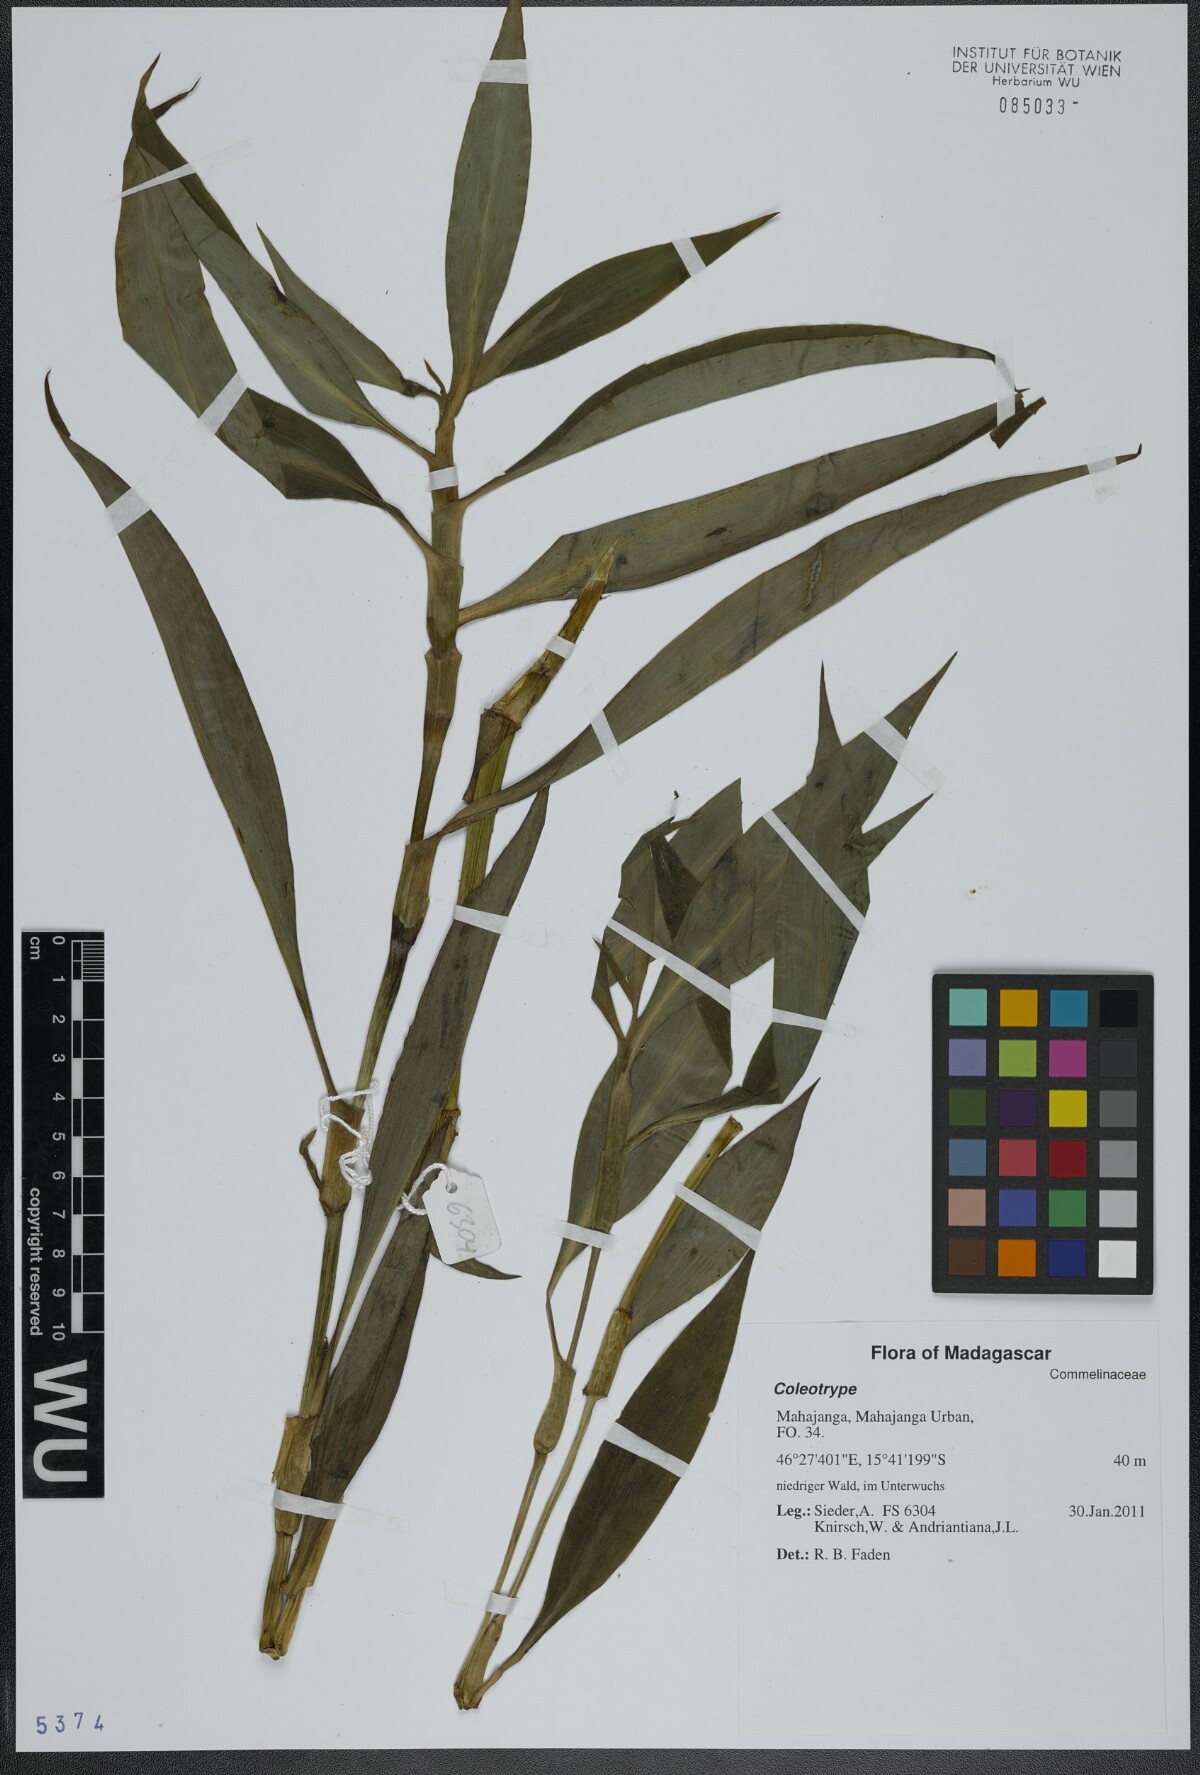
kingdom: Plantae
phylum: Tracheophyta
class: Liliopsida
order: Commelinales
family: Commelinaceae
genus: Coleotrype
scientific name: Coleotrype
